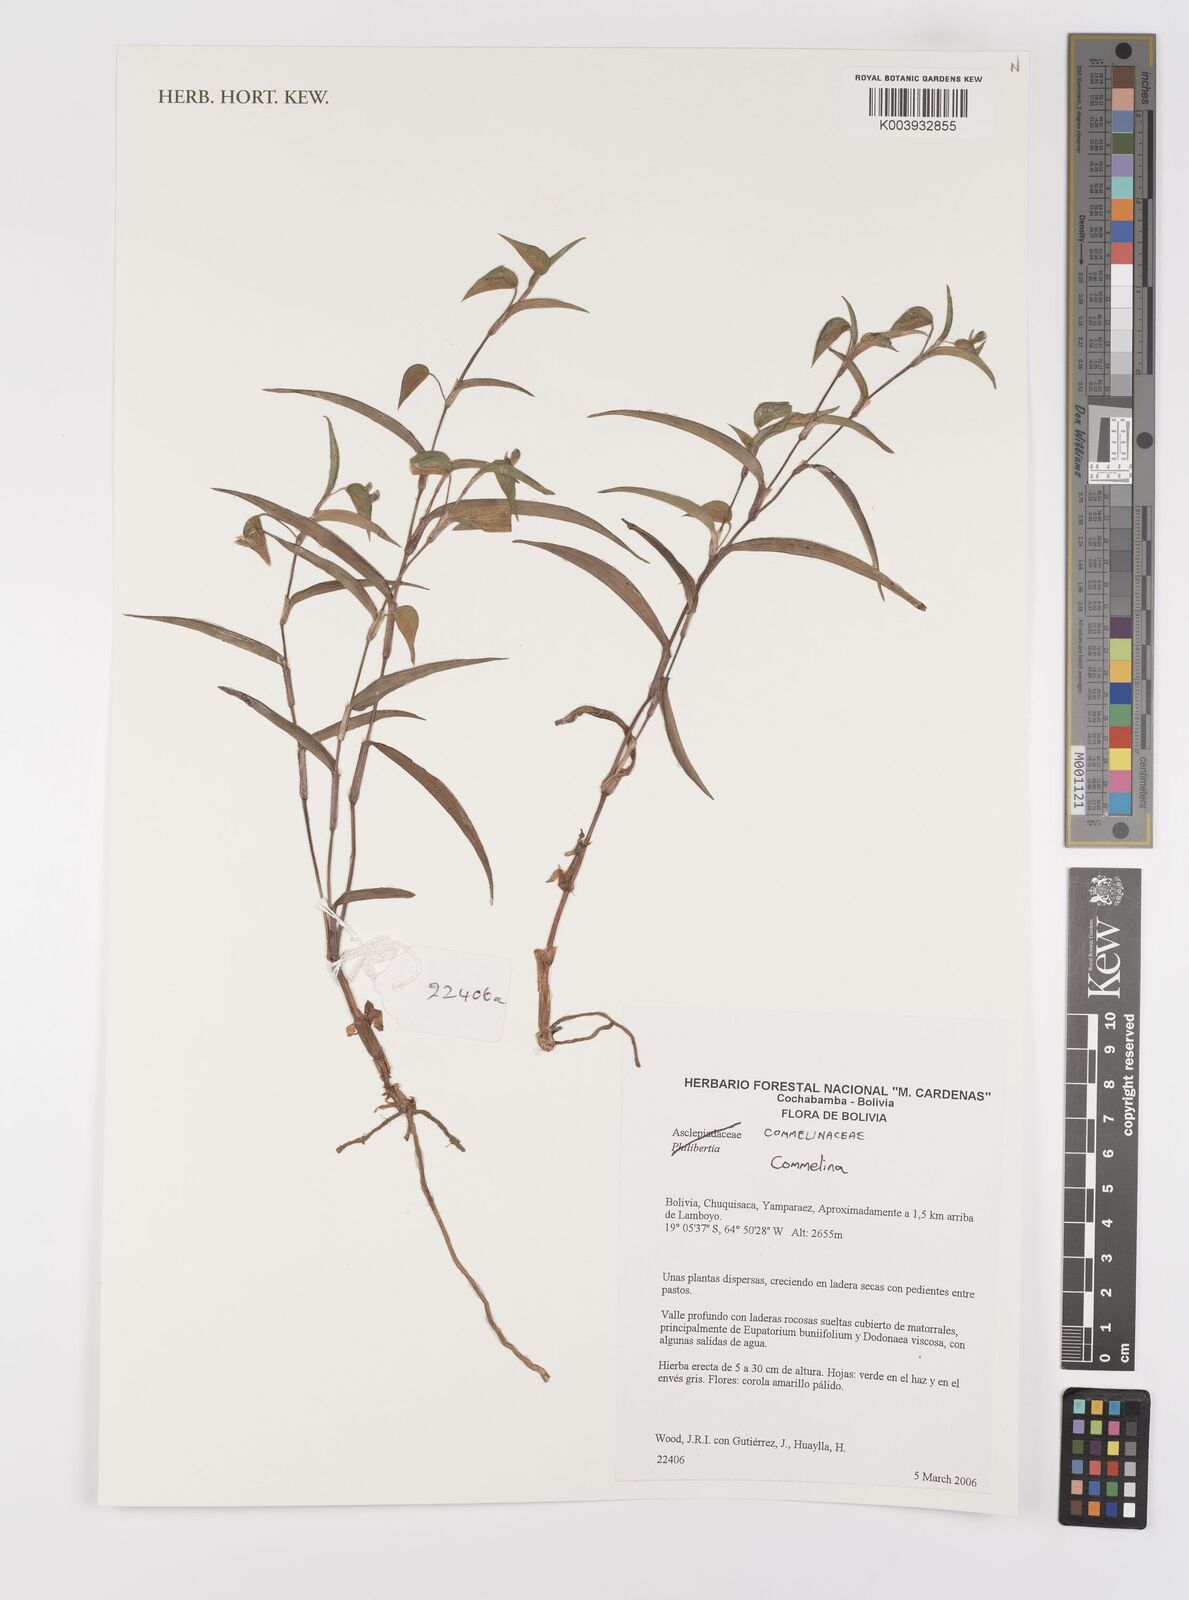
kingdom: Plantae
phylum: Tracheophyta
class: Liliopsida
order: Commelinales
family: Commelinaceae
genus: Commelina
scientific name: Commelina
